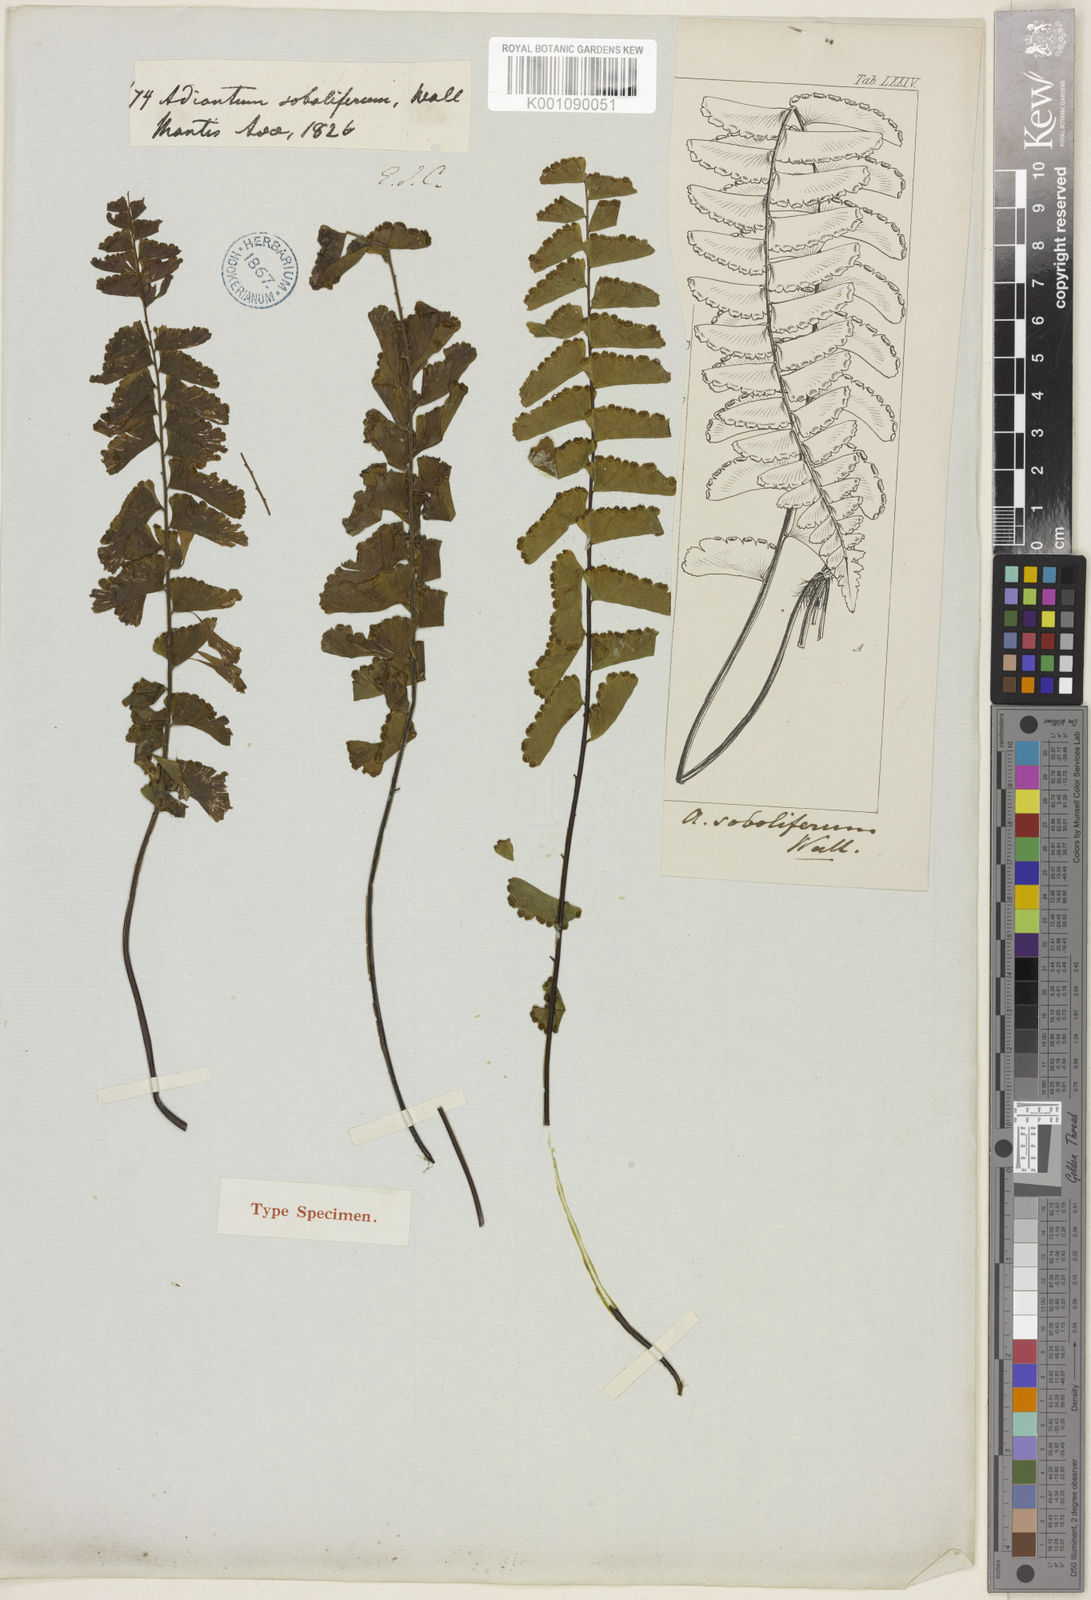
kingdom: Plantae
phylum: Tracheophyta
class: Polypodiopsida
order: Polypodiales
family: Pteridaceae
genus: Adiantum
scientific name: Adiantum soboliferum
